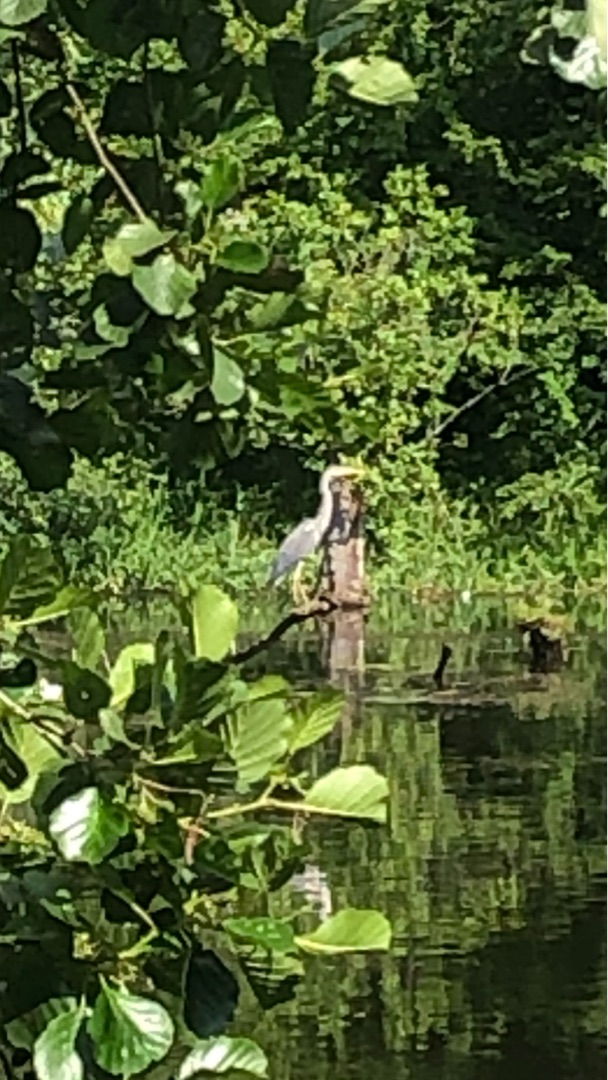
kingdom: Animalia
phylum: Chordata
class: Aves
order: Pelecaniformes
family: Ardeidae
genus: Ardea
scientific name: Ardea cinerea
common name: Fiskehejre
